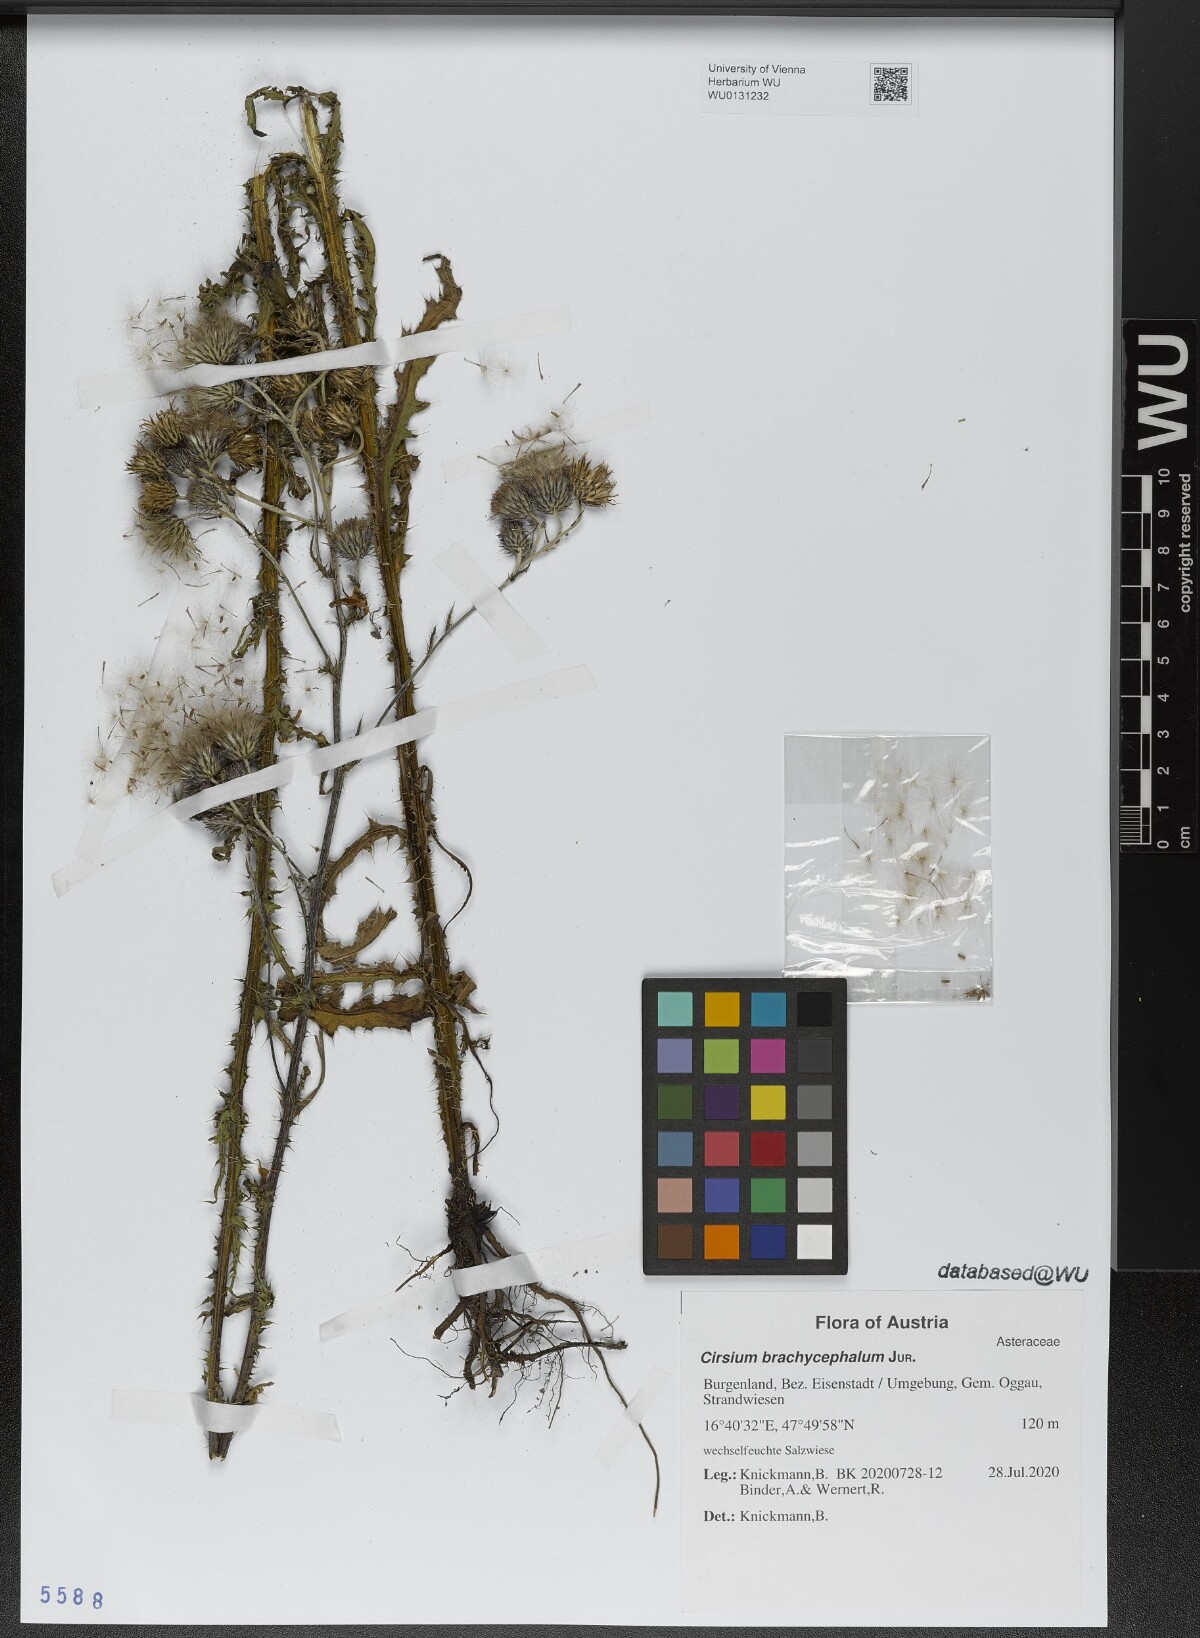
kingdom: Plantae
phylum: Tracheophyta
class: Magnoliopsida
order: Asterales
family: Asteraceae
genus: Cirsium
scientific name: Cirsium brachycephalum
